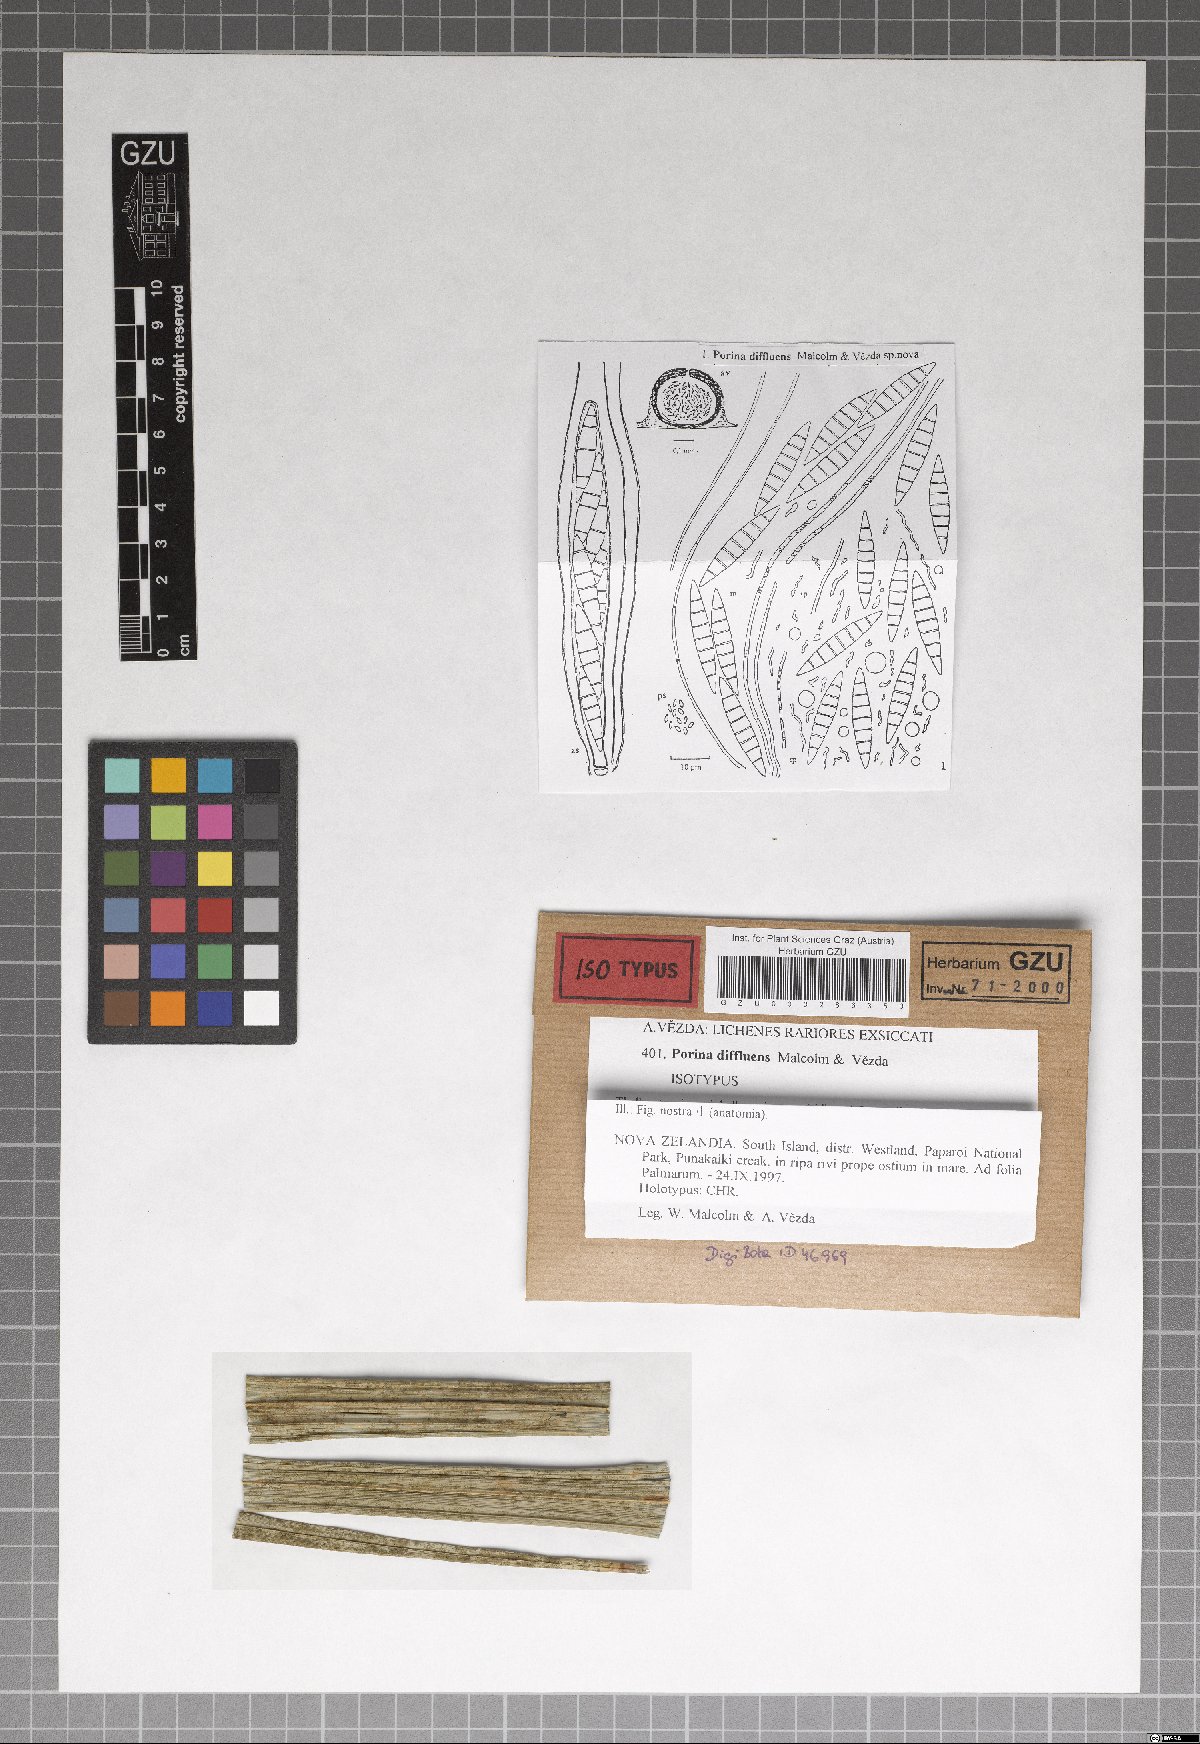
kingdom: Fungi
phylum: Ascomycota
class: Lecanoromycetes
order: Ostropales
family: Porinaceae
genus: Porina
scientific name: Porina
